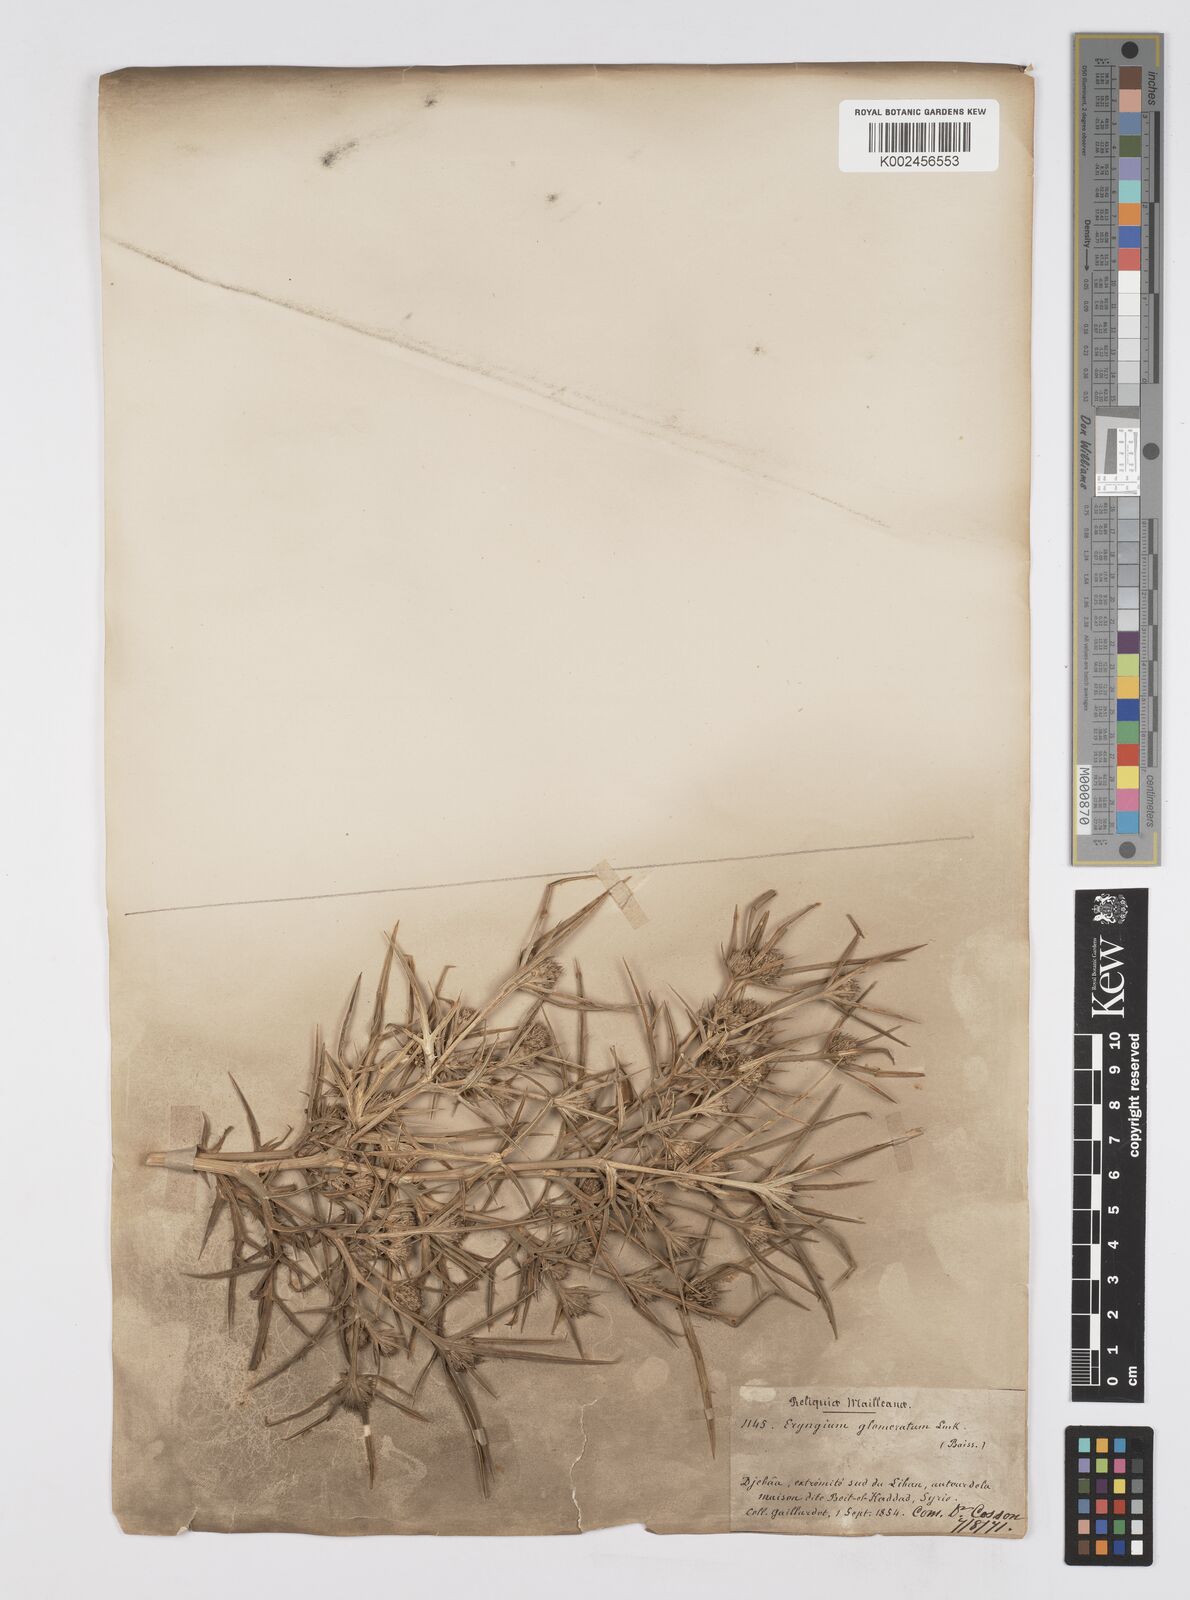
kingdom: Plantae
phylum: Tracheophyta
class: Magnoliopsida
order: Apiales
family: Apiaceae
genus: Eryngium
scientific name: Eryngium glomeratum
